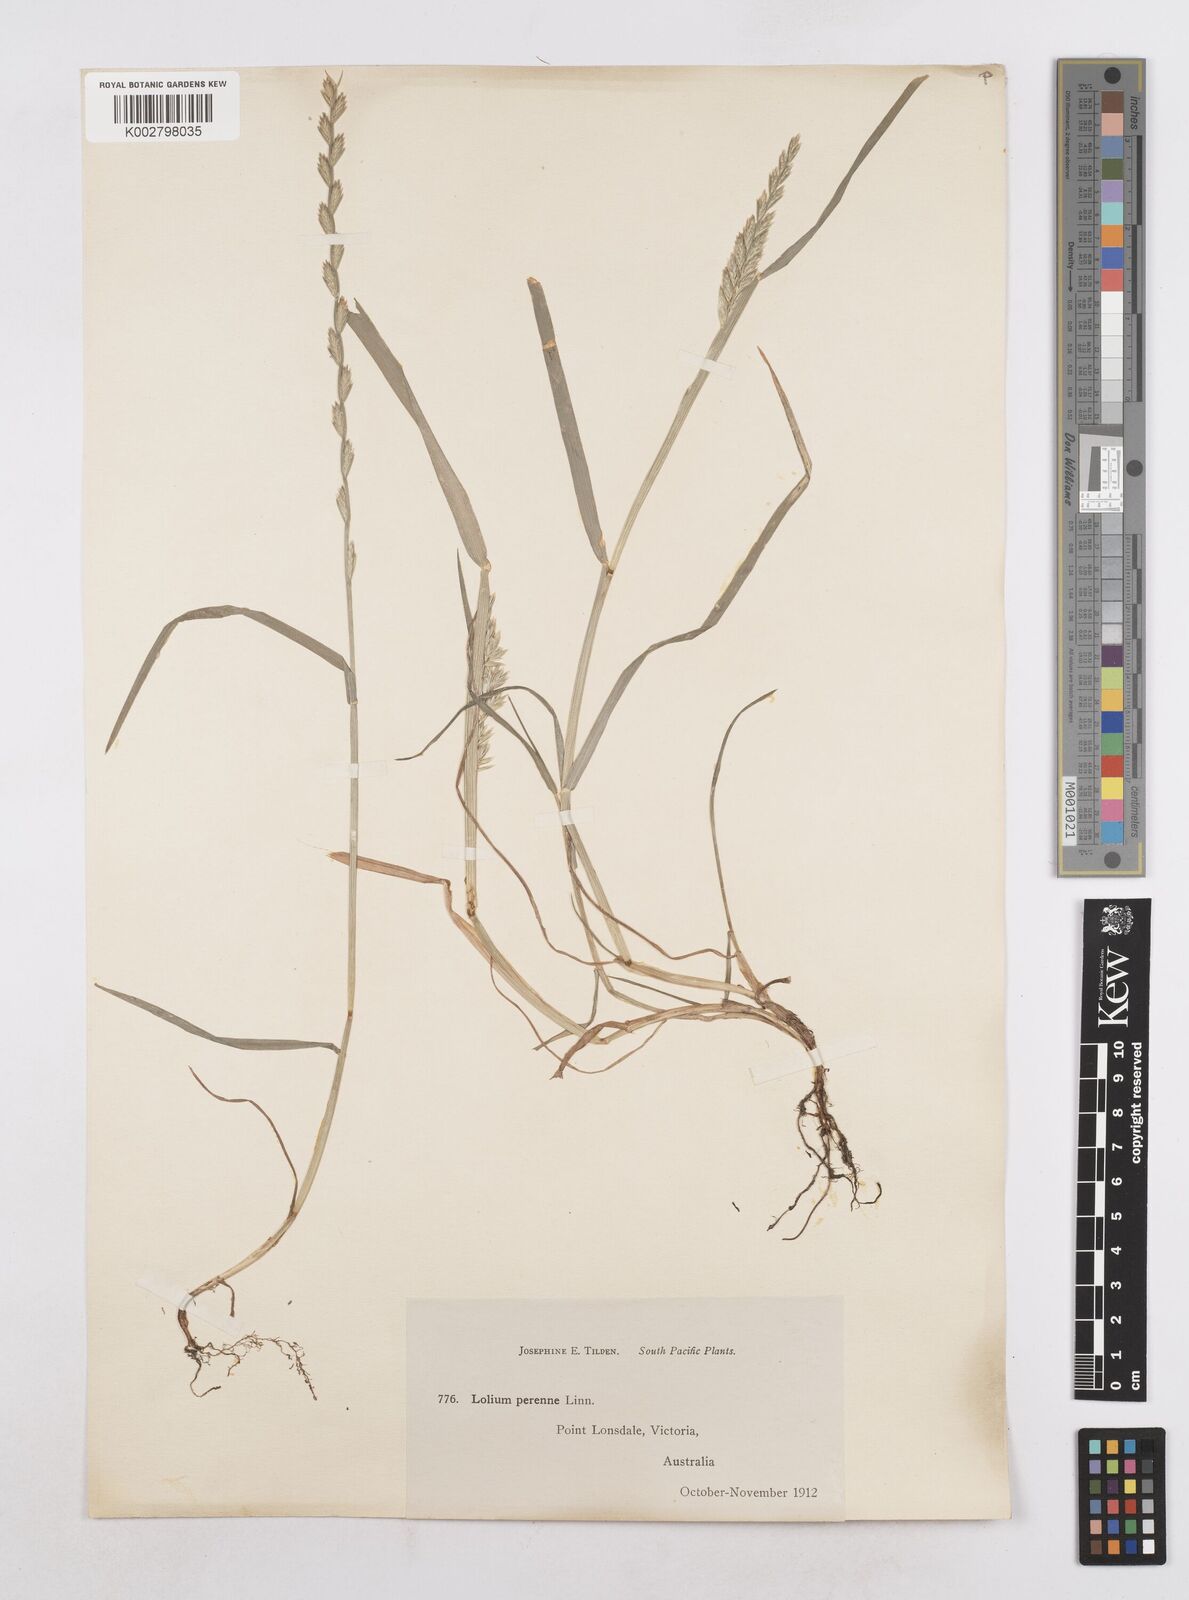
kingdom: Plantae
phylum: Tracheophyta
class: Liliopsida
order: Poales
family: Poaceae
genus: Lolium
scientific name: Lolium perenne
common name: Perennial ryegrass
